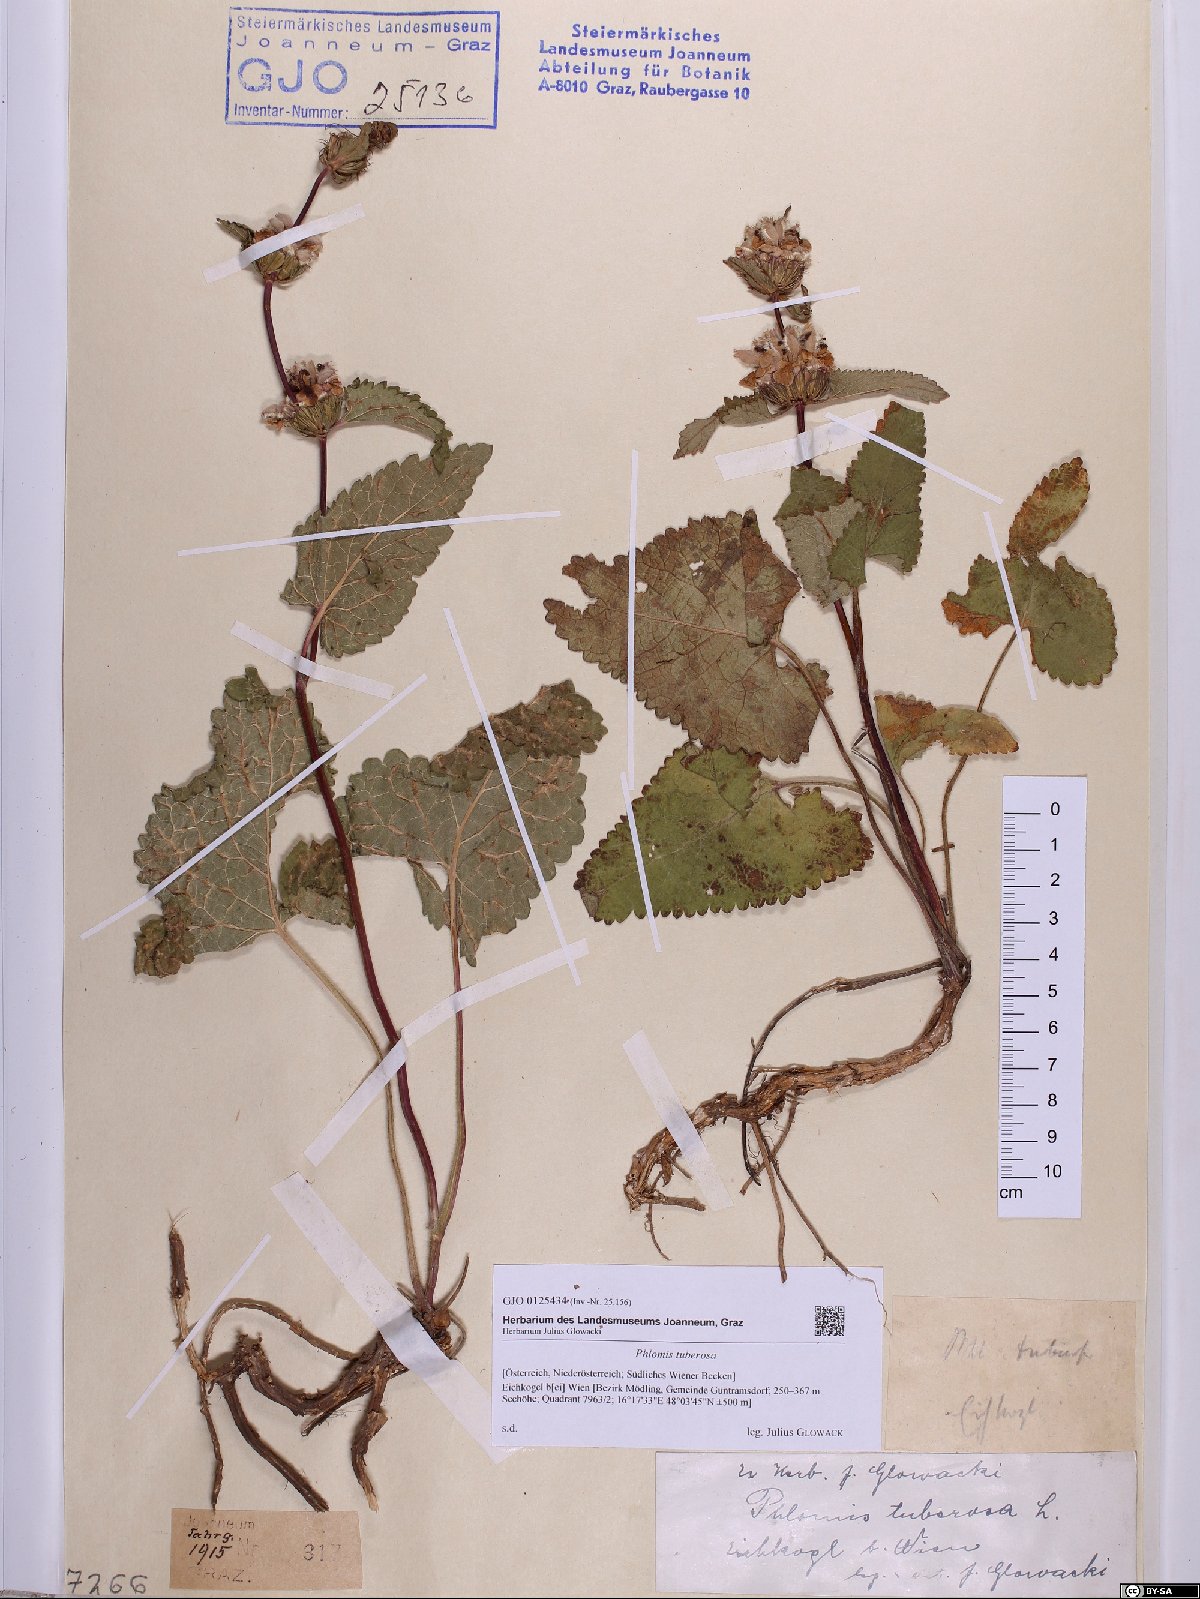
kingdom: Plantae
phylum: Tracheophyta
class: Magnoliopsida
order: Lamiales
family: Lamiaceae
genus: Phlomoides
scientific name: Phlomoides tuberosa
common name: Tuberous jerusalem sage
